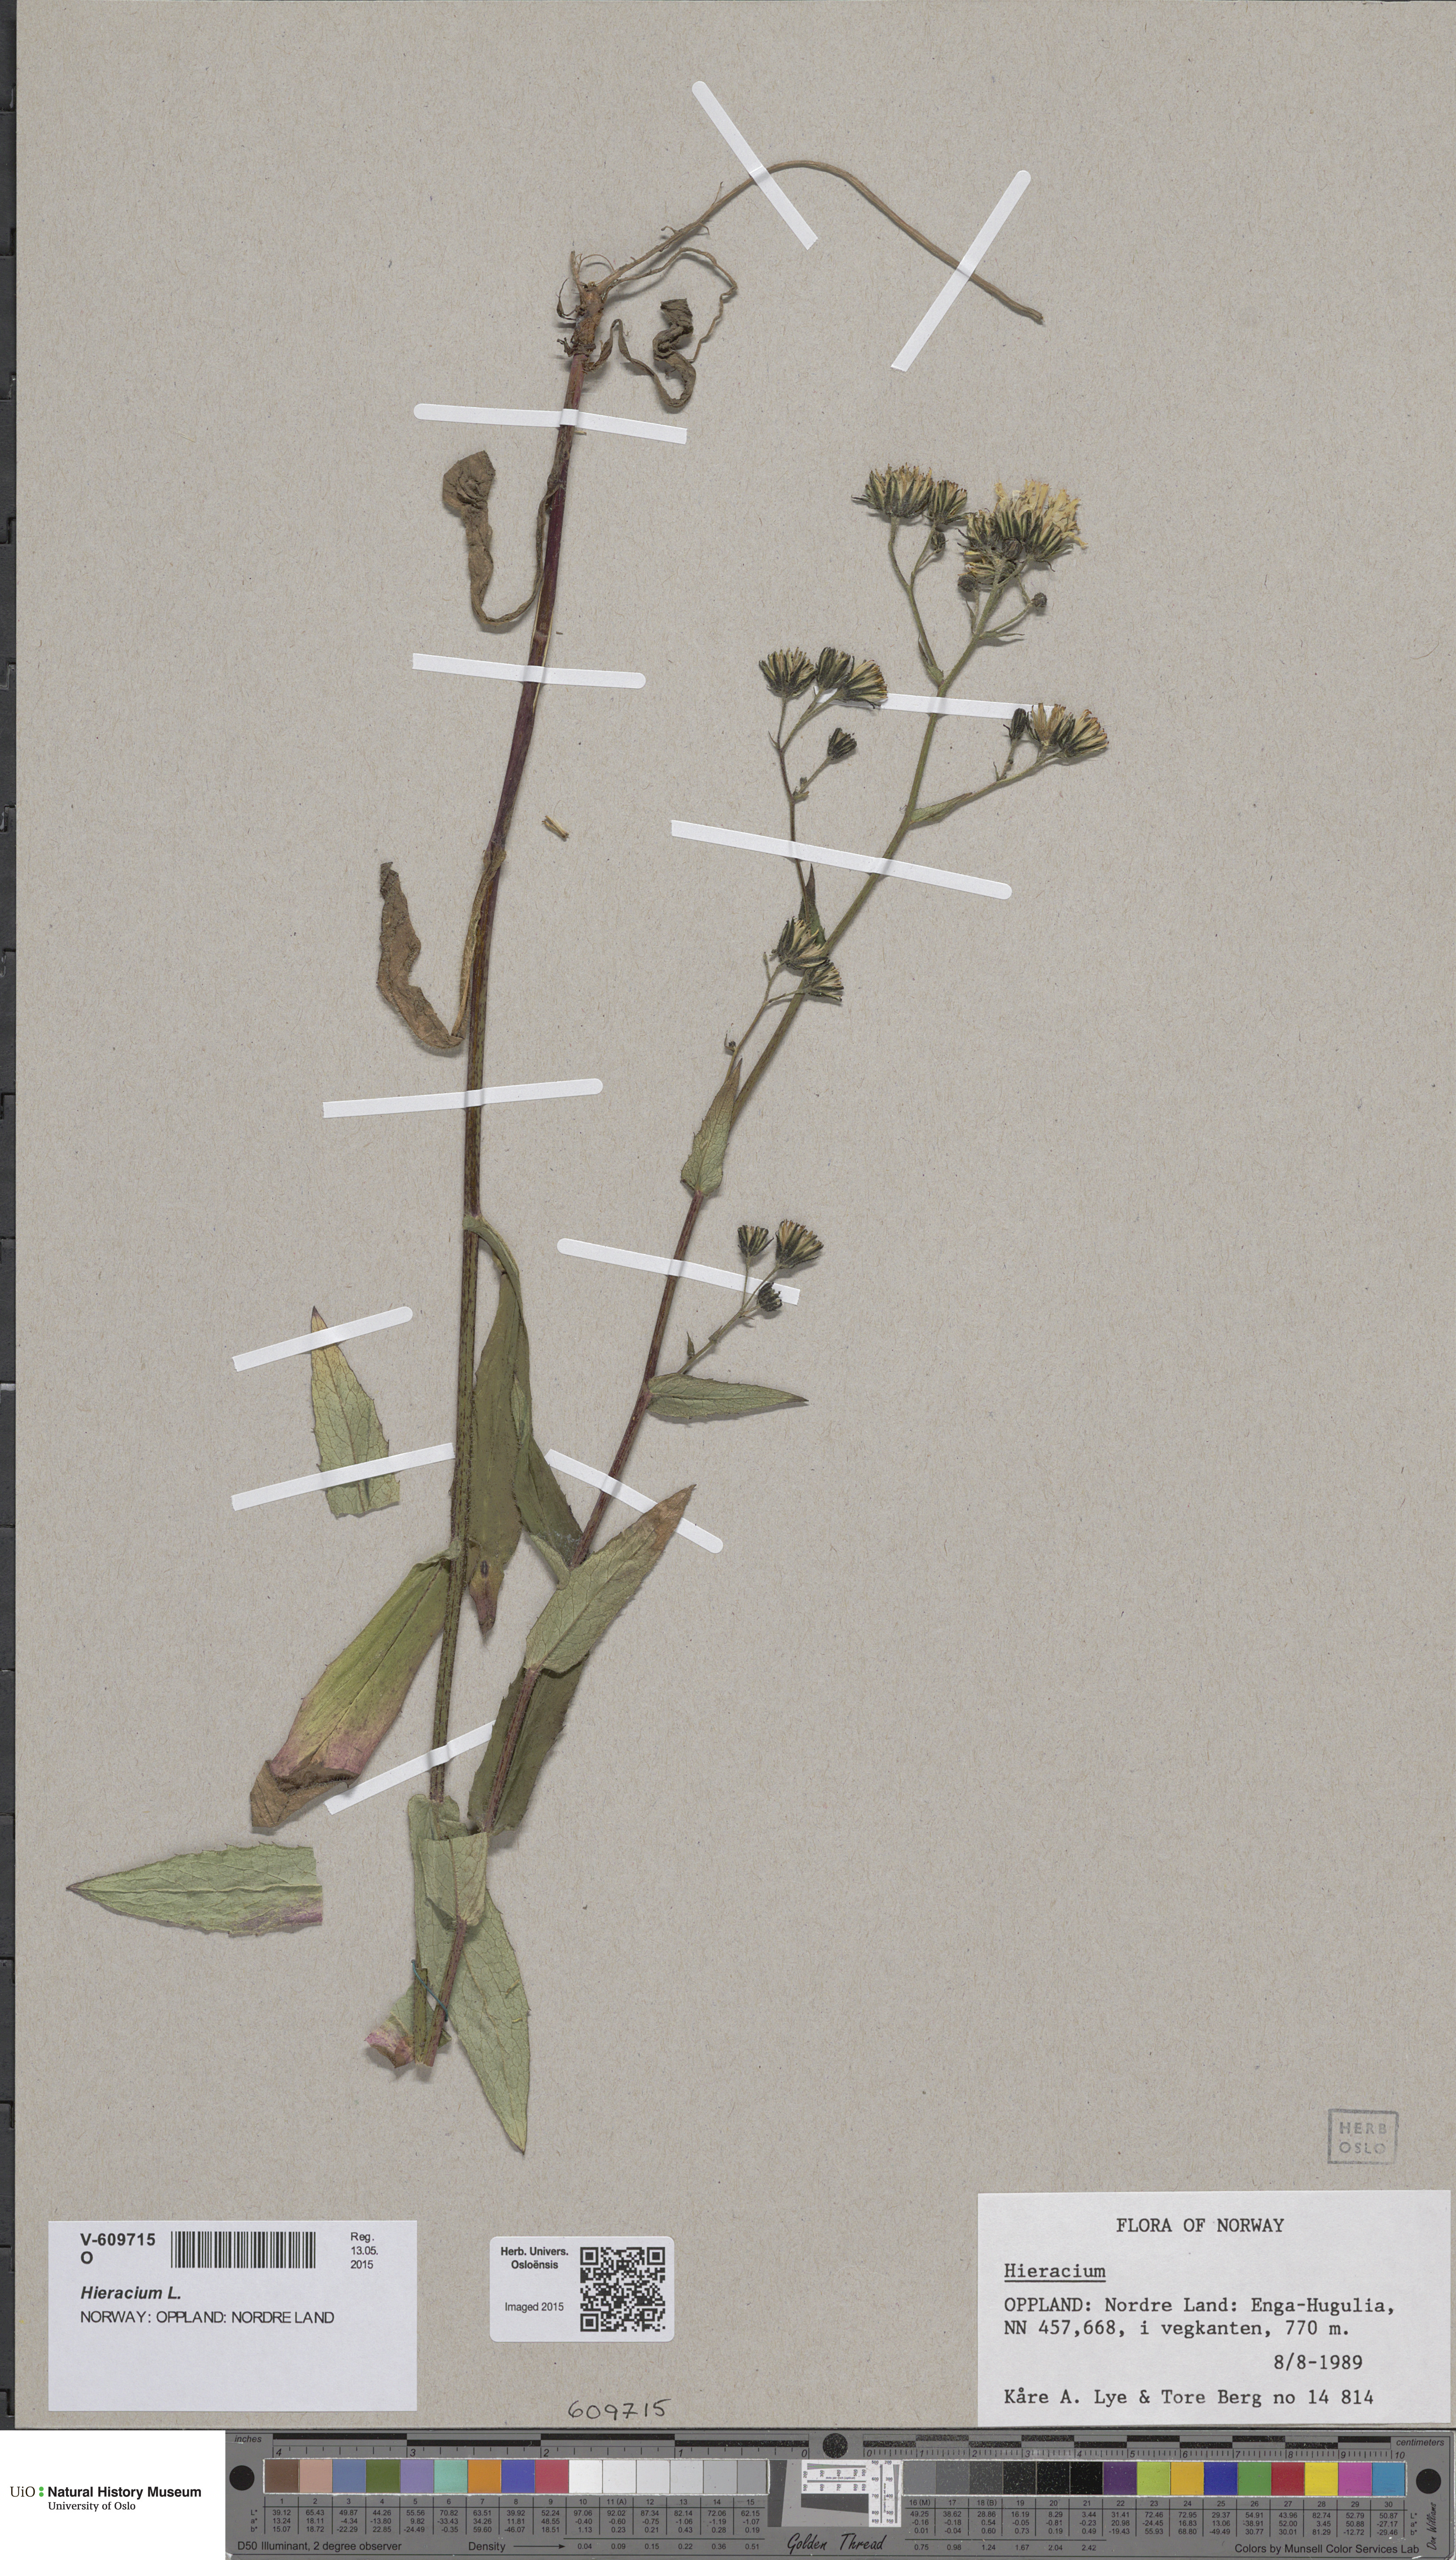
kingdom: Plantae
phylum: Tracheophyta
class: Magnoliopsida
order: Asterales
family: Asteraceae
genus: Hieracium
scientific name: Hieracium
